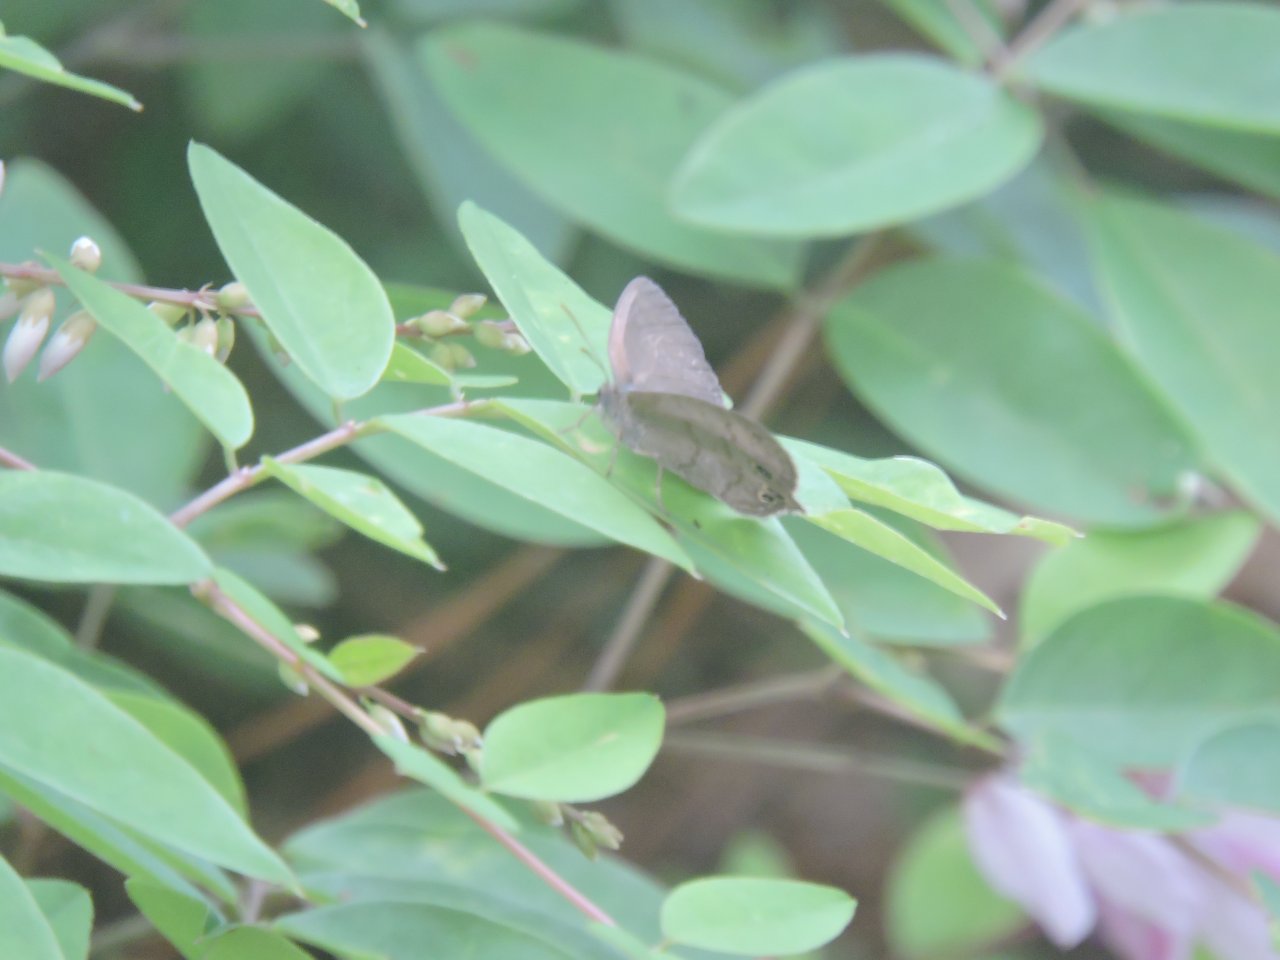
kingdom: Animalia
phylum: Arthropoda
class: Insecta
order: Lepidoptera
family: Nymphalidae
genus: Hermeuptychia
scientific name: Hermeuptychia hermes
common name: Carolina Satyr
